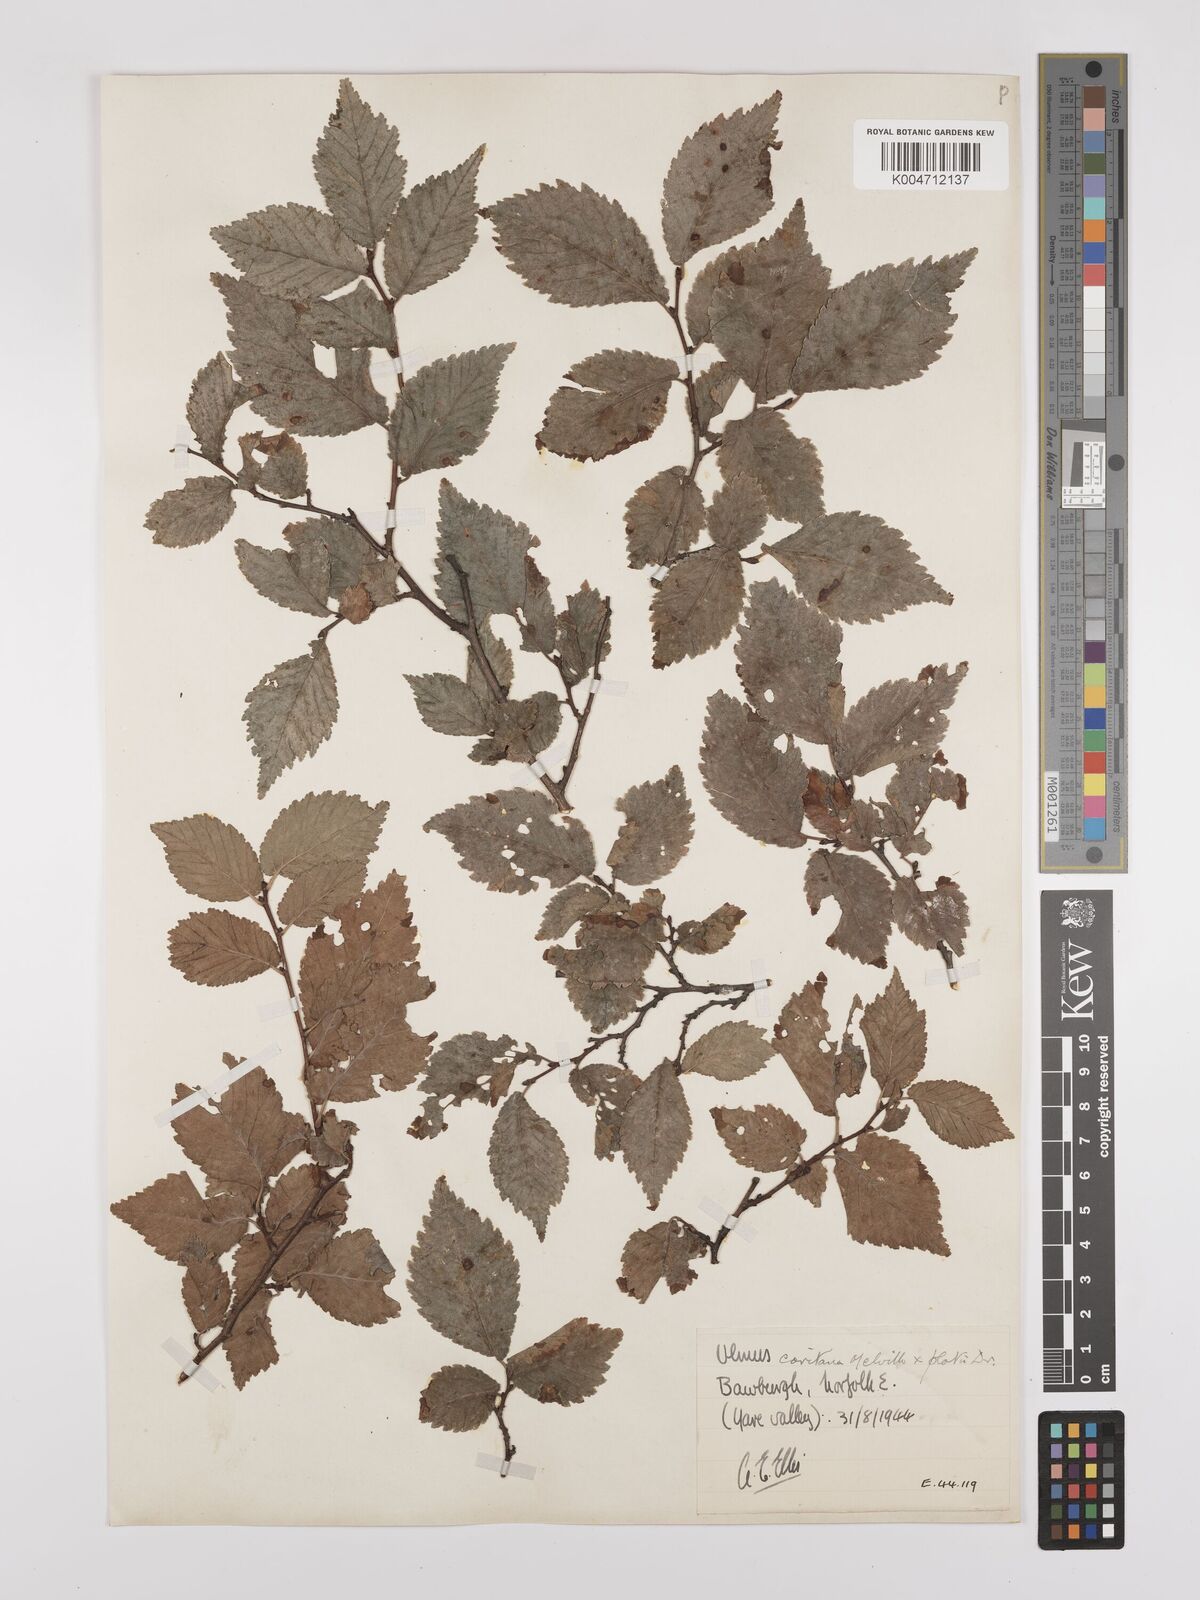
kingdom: Plantae
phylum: Tracheophyta
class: Magnoliopsida
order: Rosales
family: Ulmaceae
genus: Ulmus
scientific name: Ulmus minor
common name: Small-leaved elm
